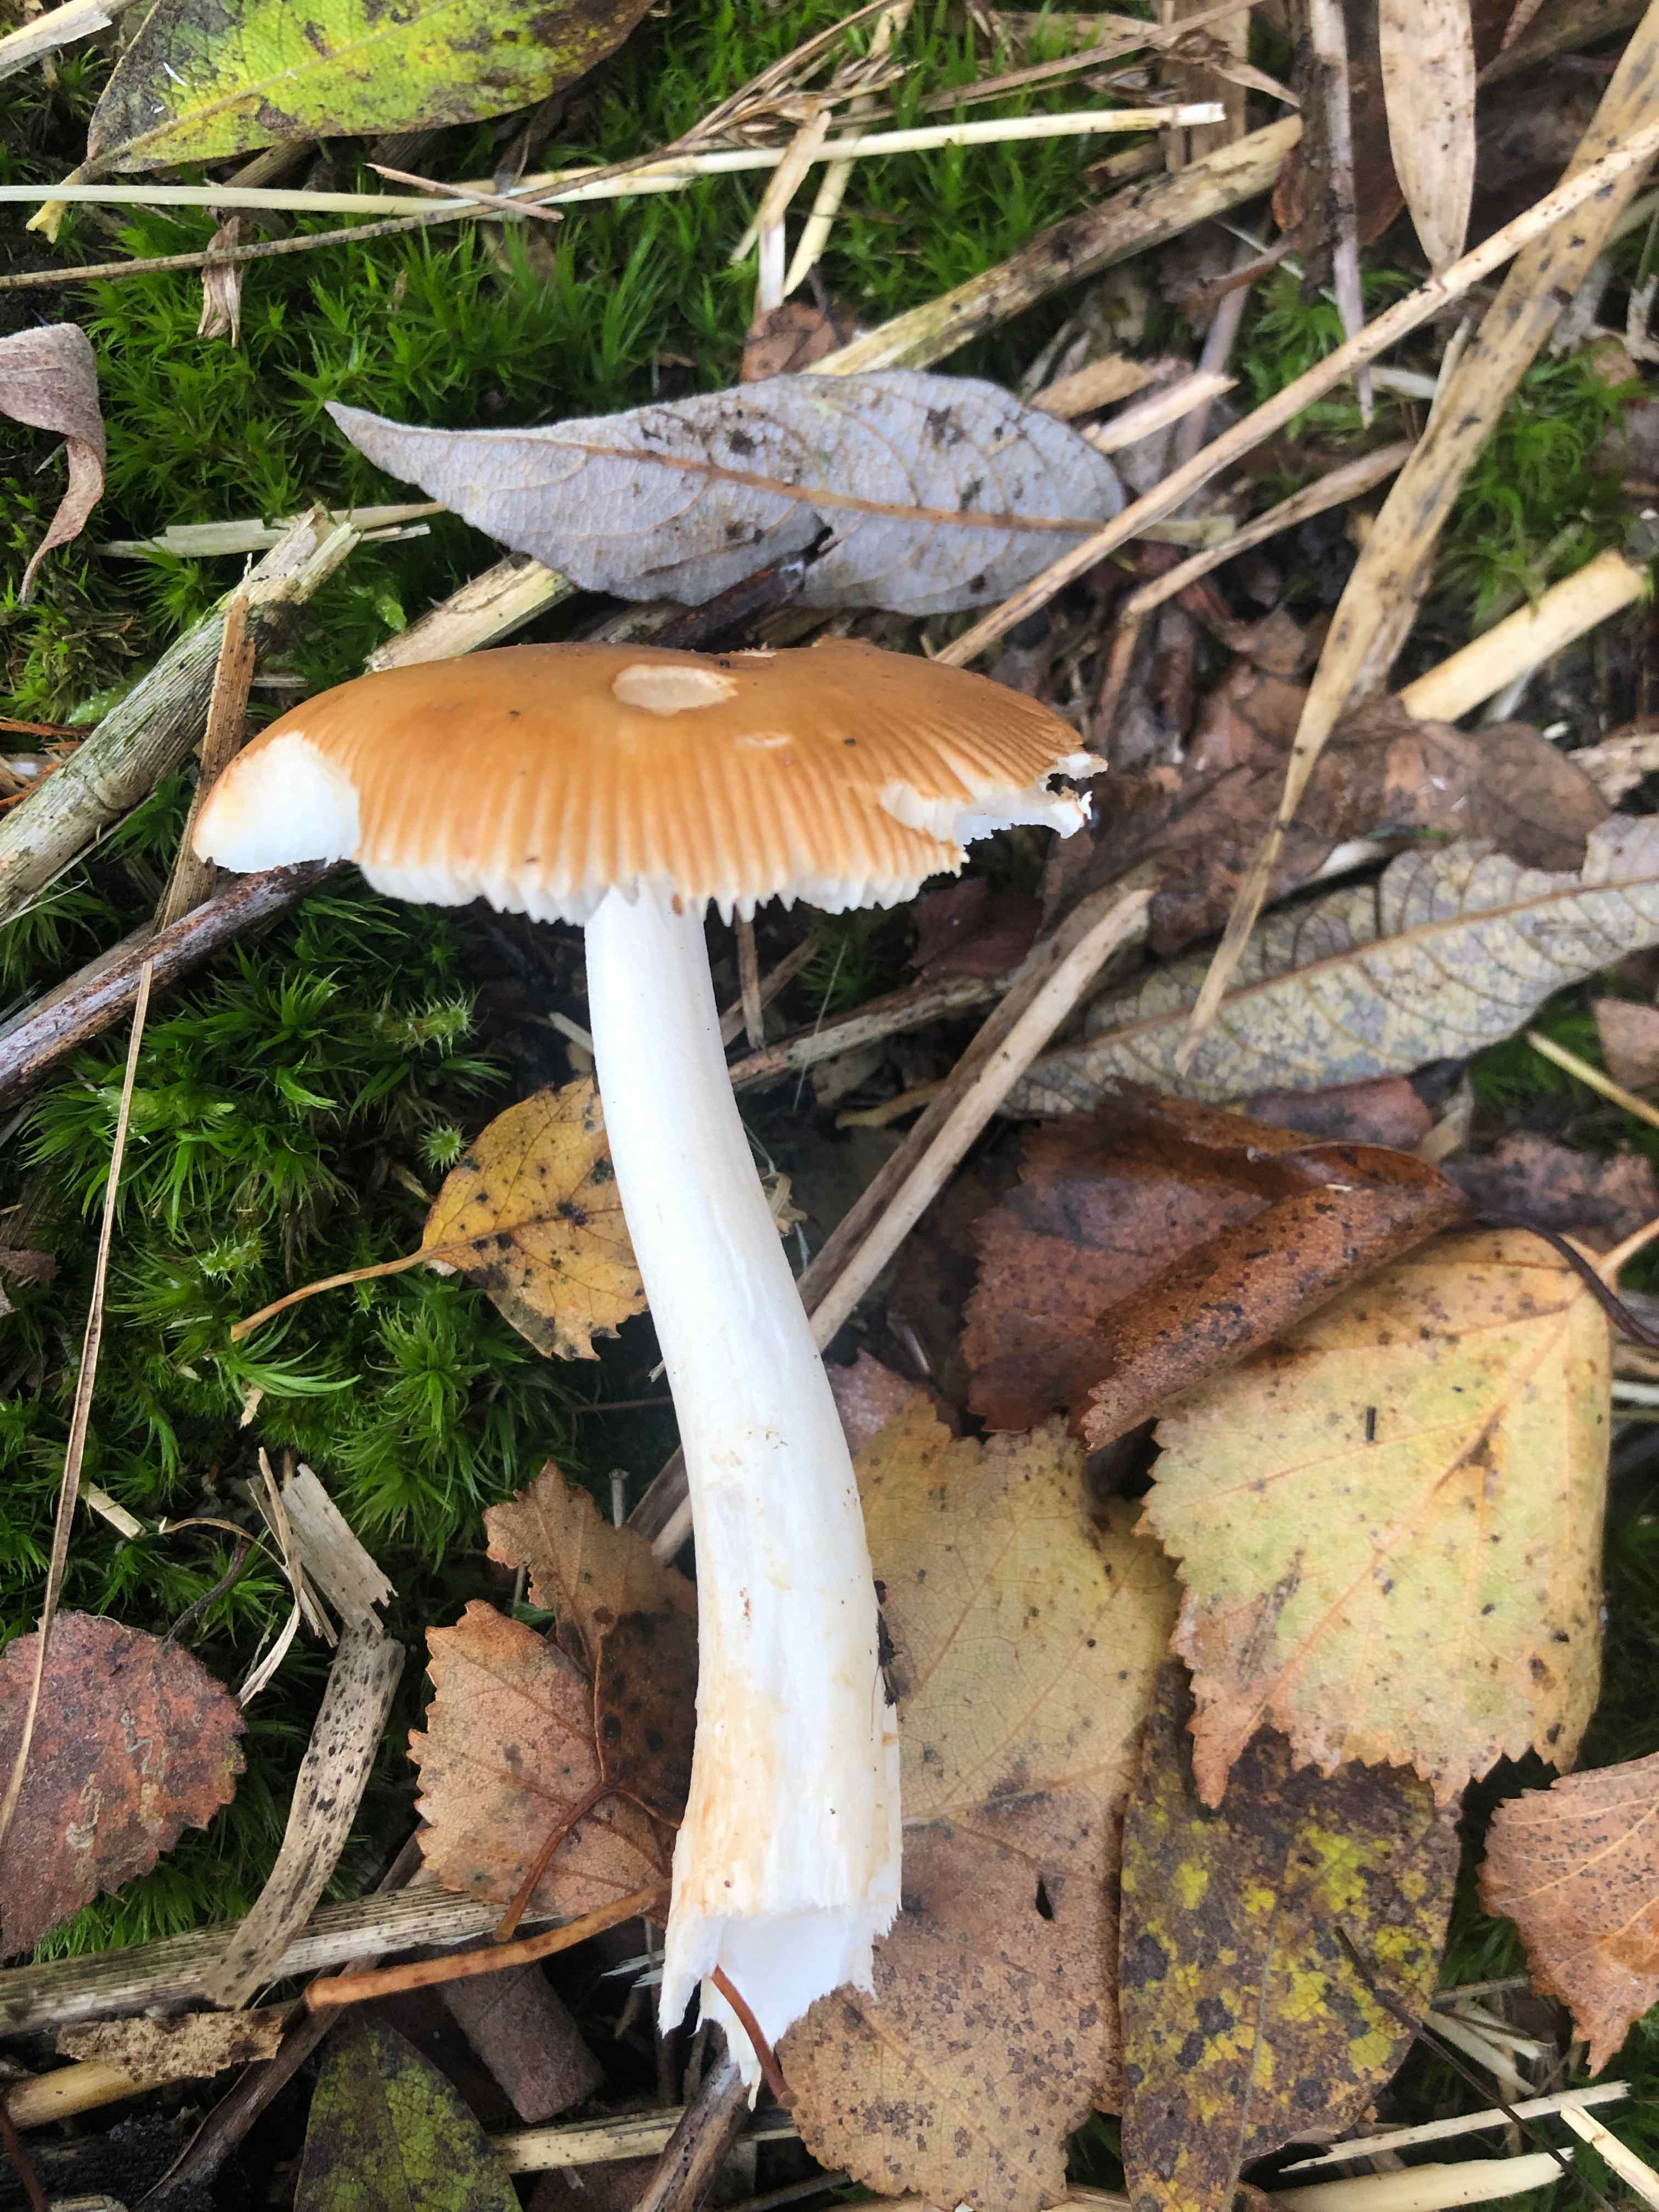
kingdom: Fungi
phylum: Basidiomycota
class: Agaricomycetes
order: Agaricales
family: Amanitaceae
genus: Amanita
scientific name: Amanita
